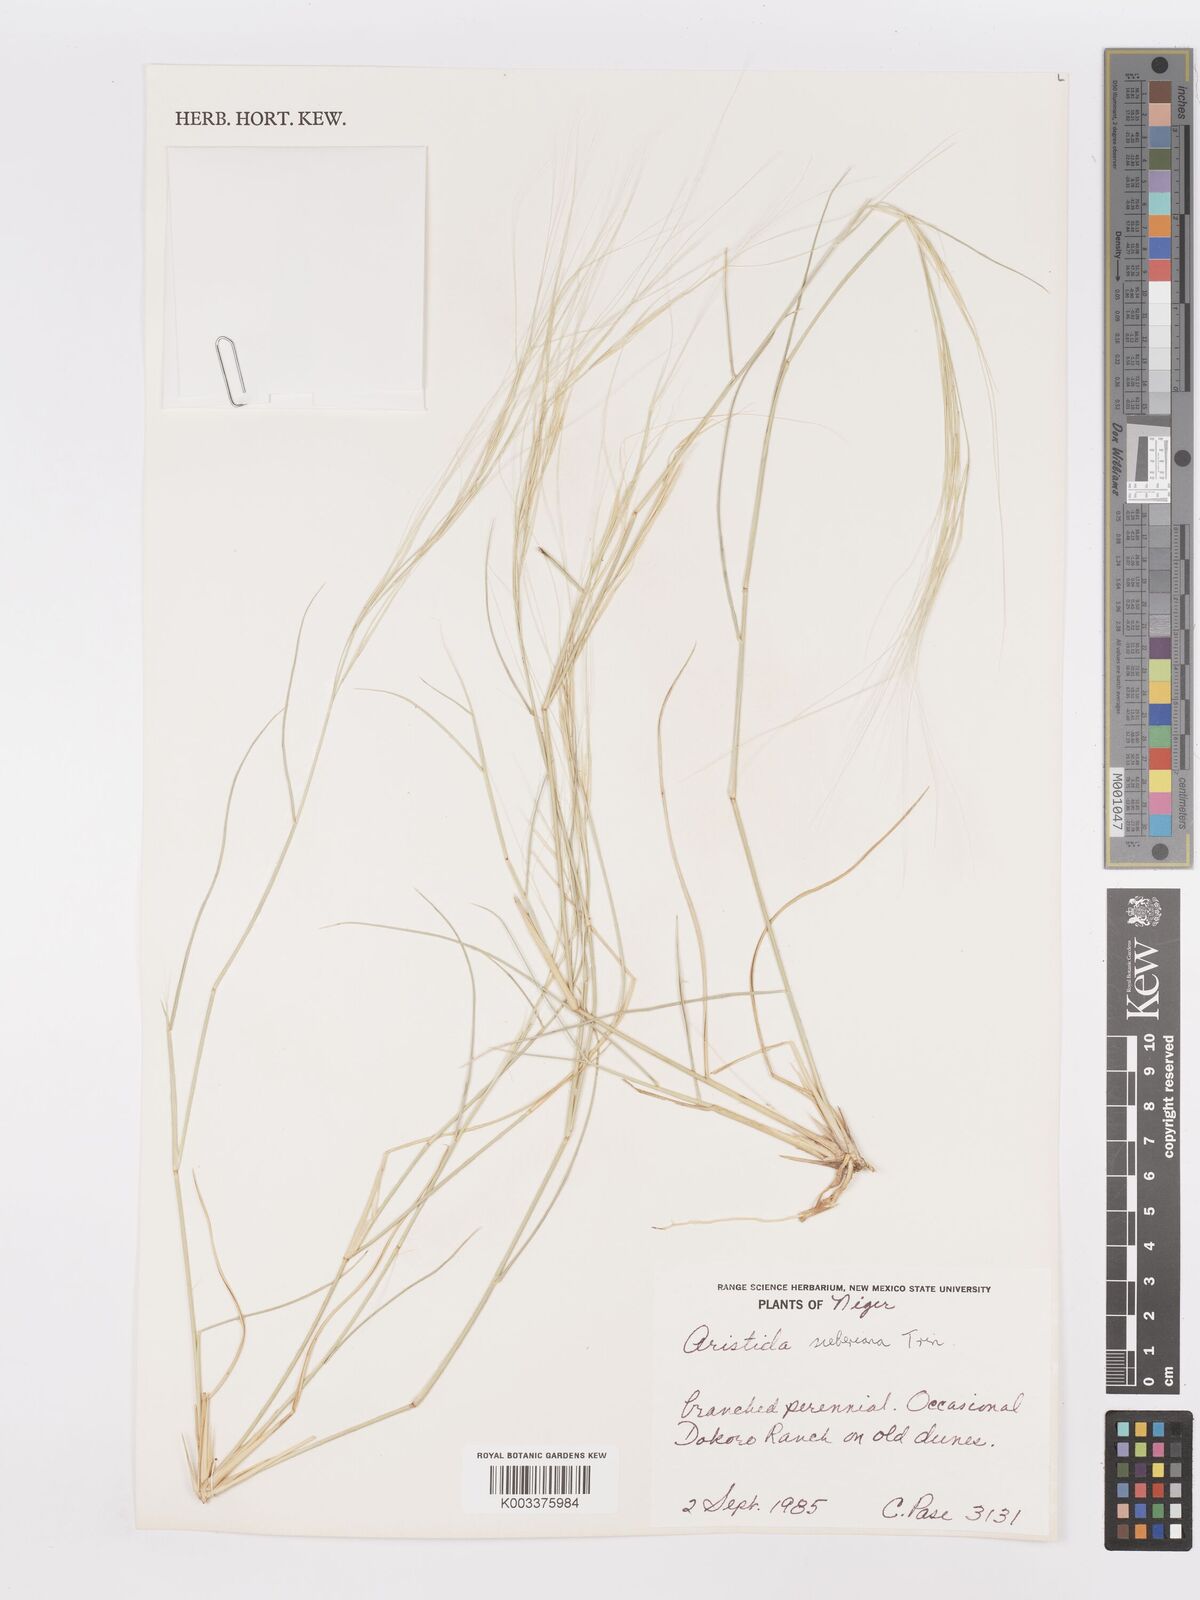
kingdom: Plantae
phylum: Tracheophyta
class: Liliopsida
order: Poales
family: Poaceae
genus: Aristida
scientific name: Aristida sieberiana
